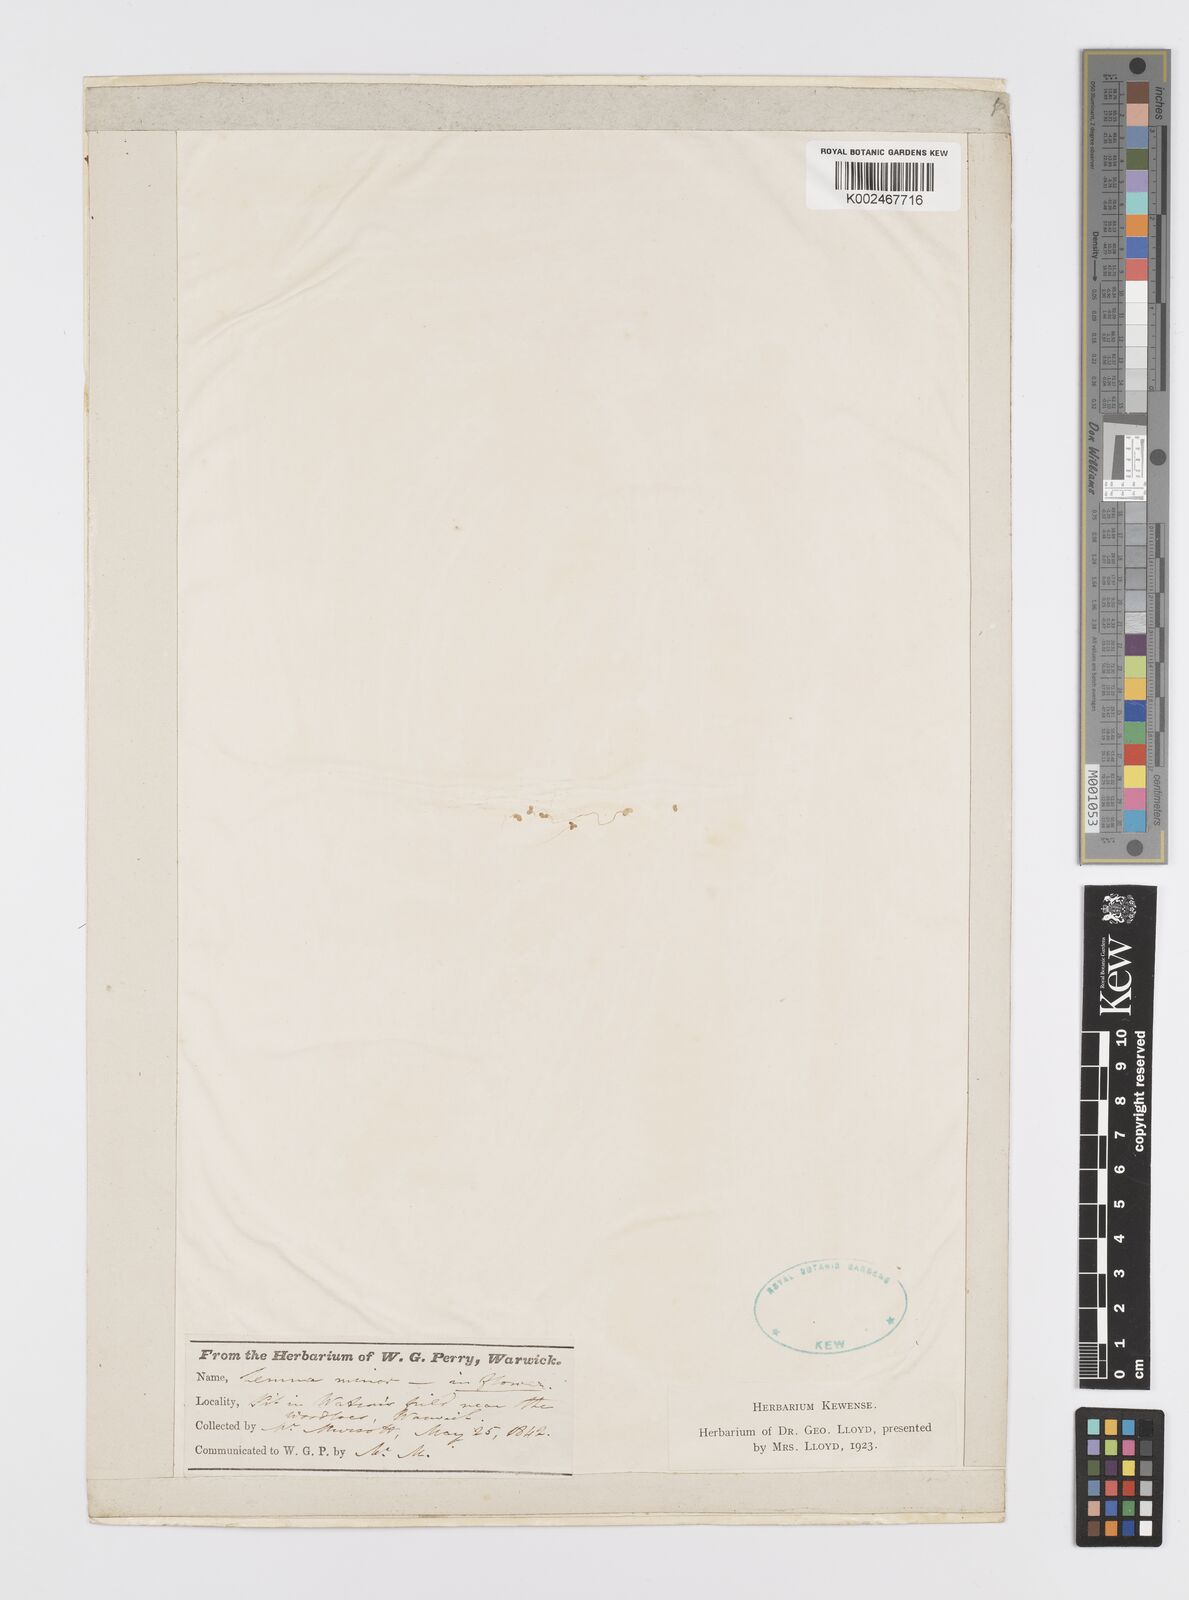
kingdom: Plantae
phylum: Tracheophyta
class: Liliopsida
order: Alismatales
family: Araceae
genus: Lemna
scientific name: Lemna minor
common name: Common duckweed
